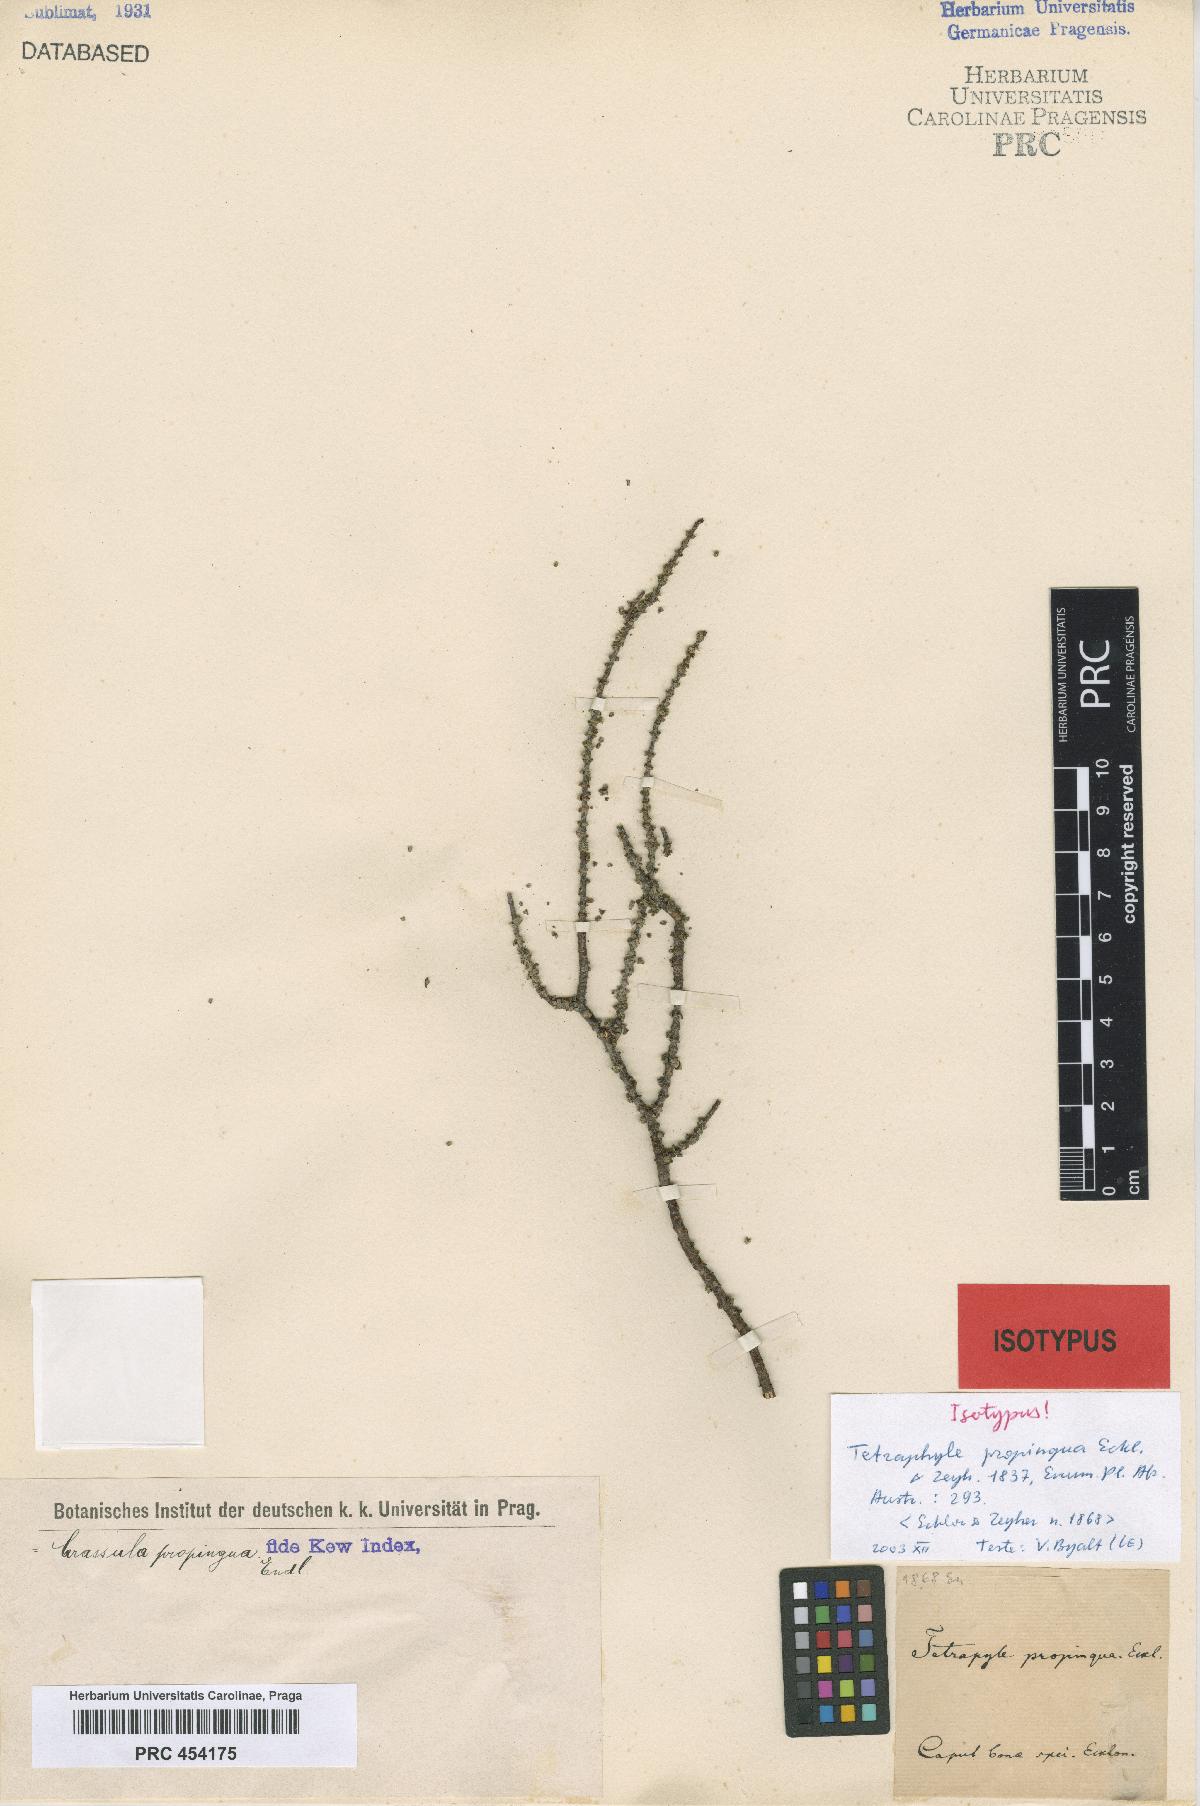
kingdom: Plantae
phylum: Tracheophyta
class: Magnoliopsida
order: Saxifragales
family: Crassulaceae
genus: Crassula
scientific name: Crassula muscosa
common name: Toy-cypress
